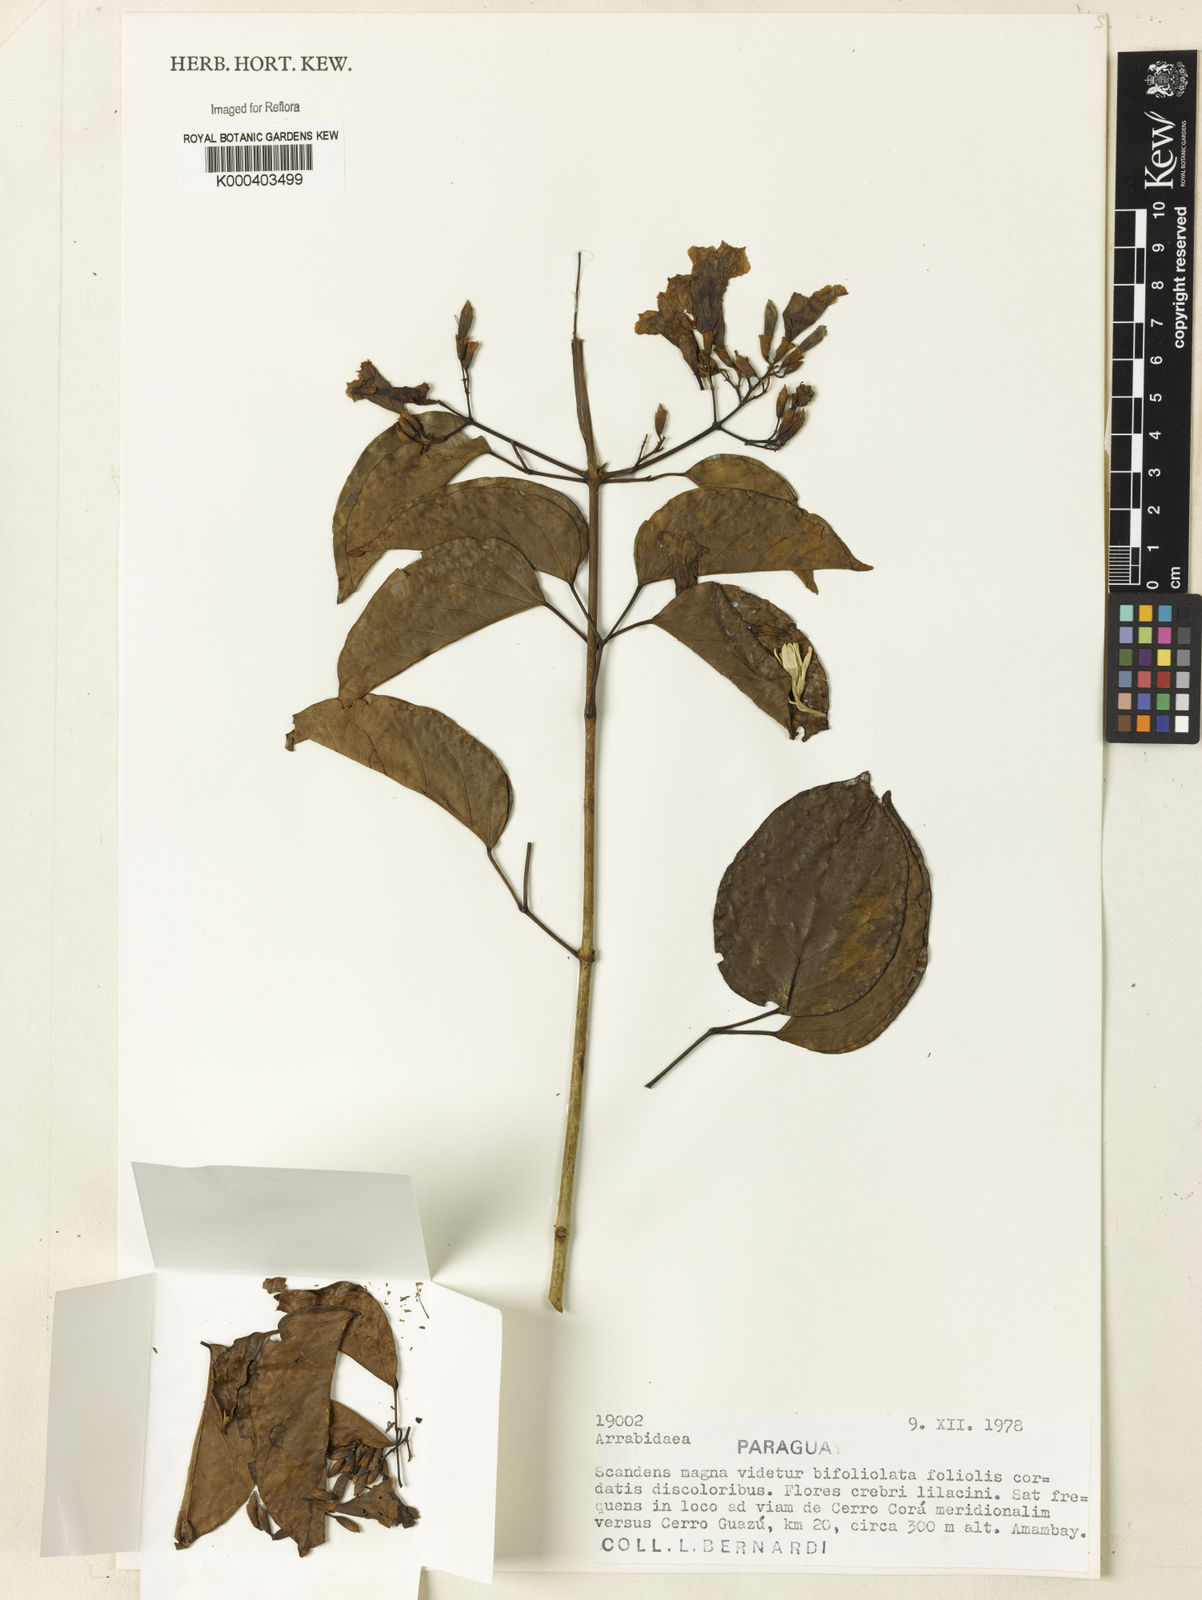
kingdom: Plantae
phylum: Tracheophyta
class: Magnoliopsida
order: Rosales
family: Rhamnaceae
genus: Arrabidaea
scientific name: Arrabidaea
